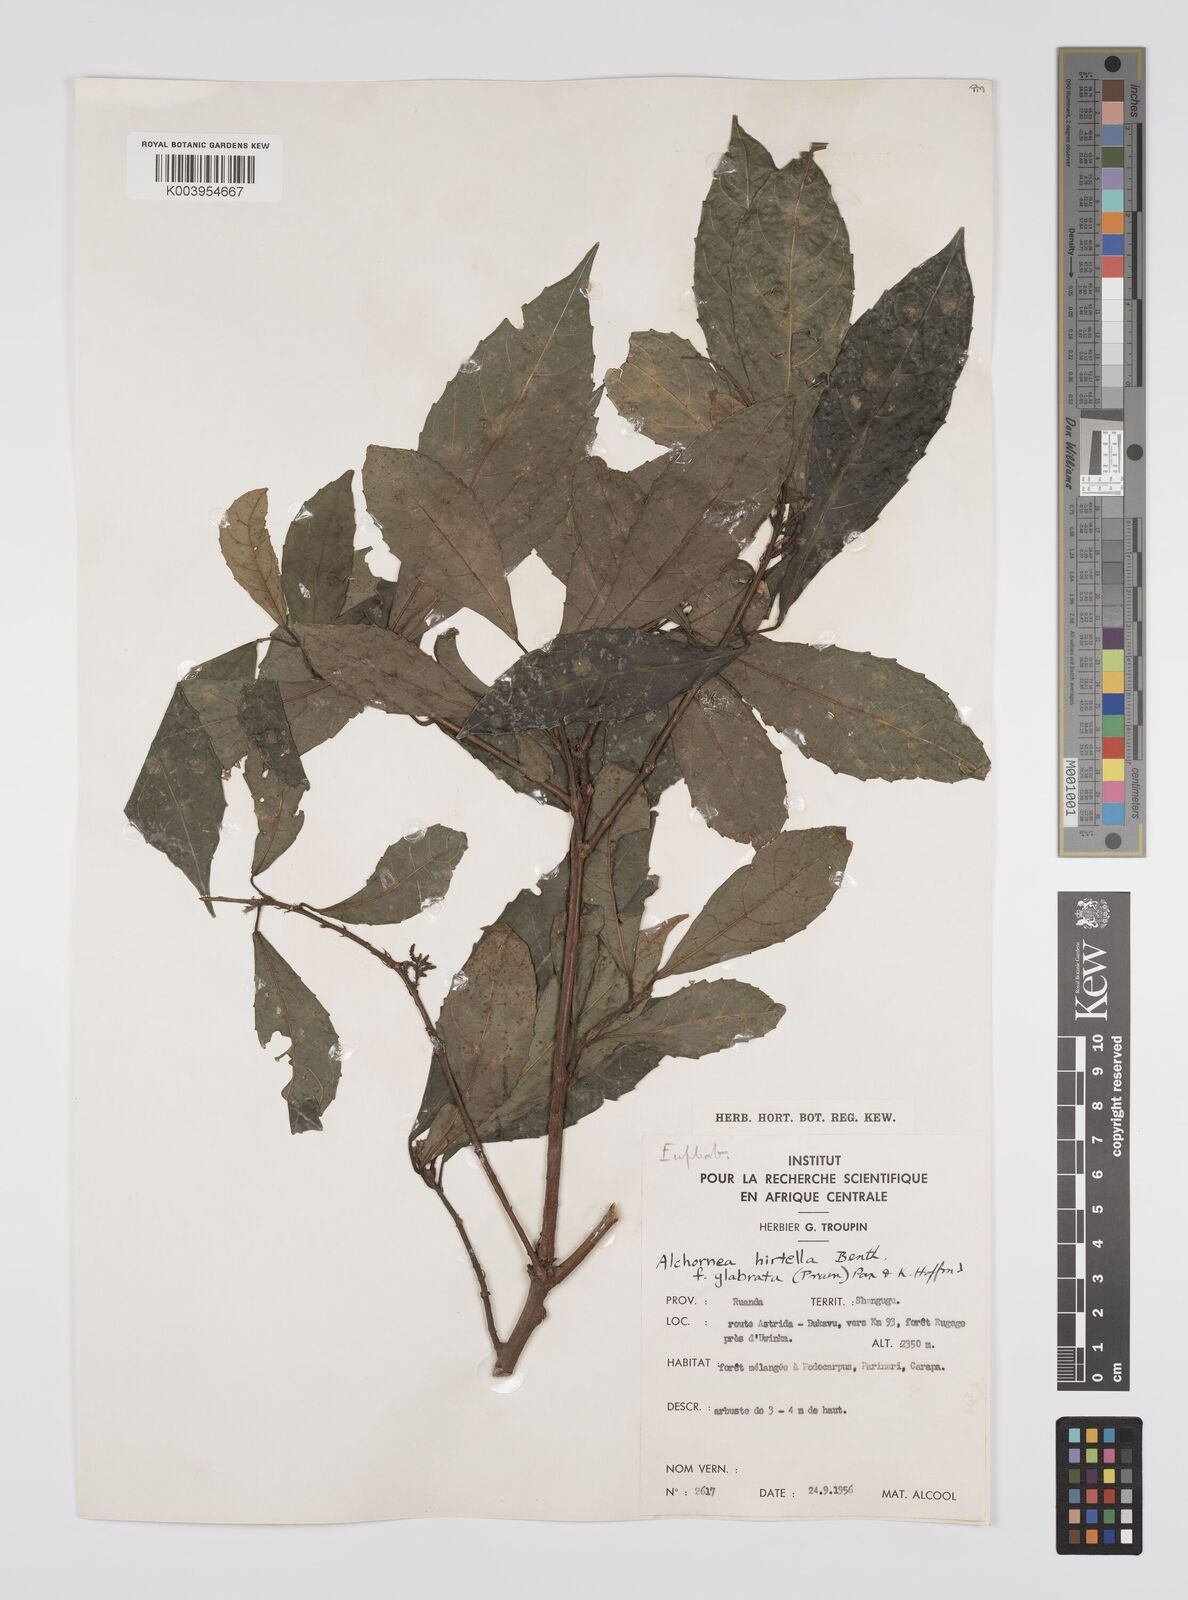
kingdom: Plantae
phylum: Tracheophyta
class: Magnoliopsida
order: Malpighiales
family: Euphorbiaceae
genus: Alchornea
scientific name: Alchornea hirtella
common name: Forest bead-string
